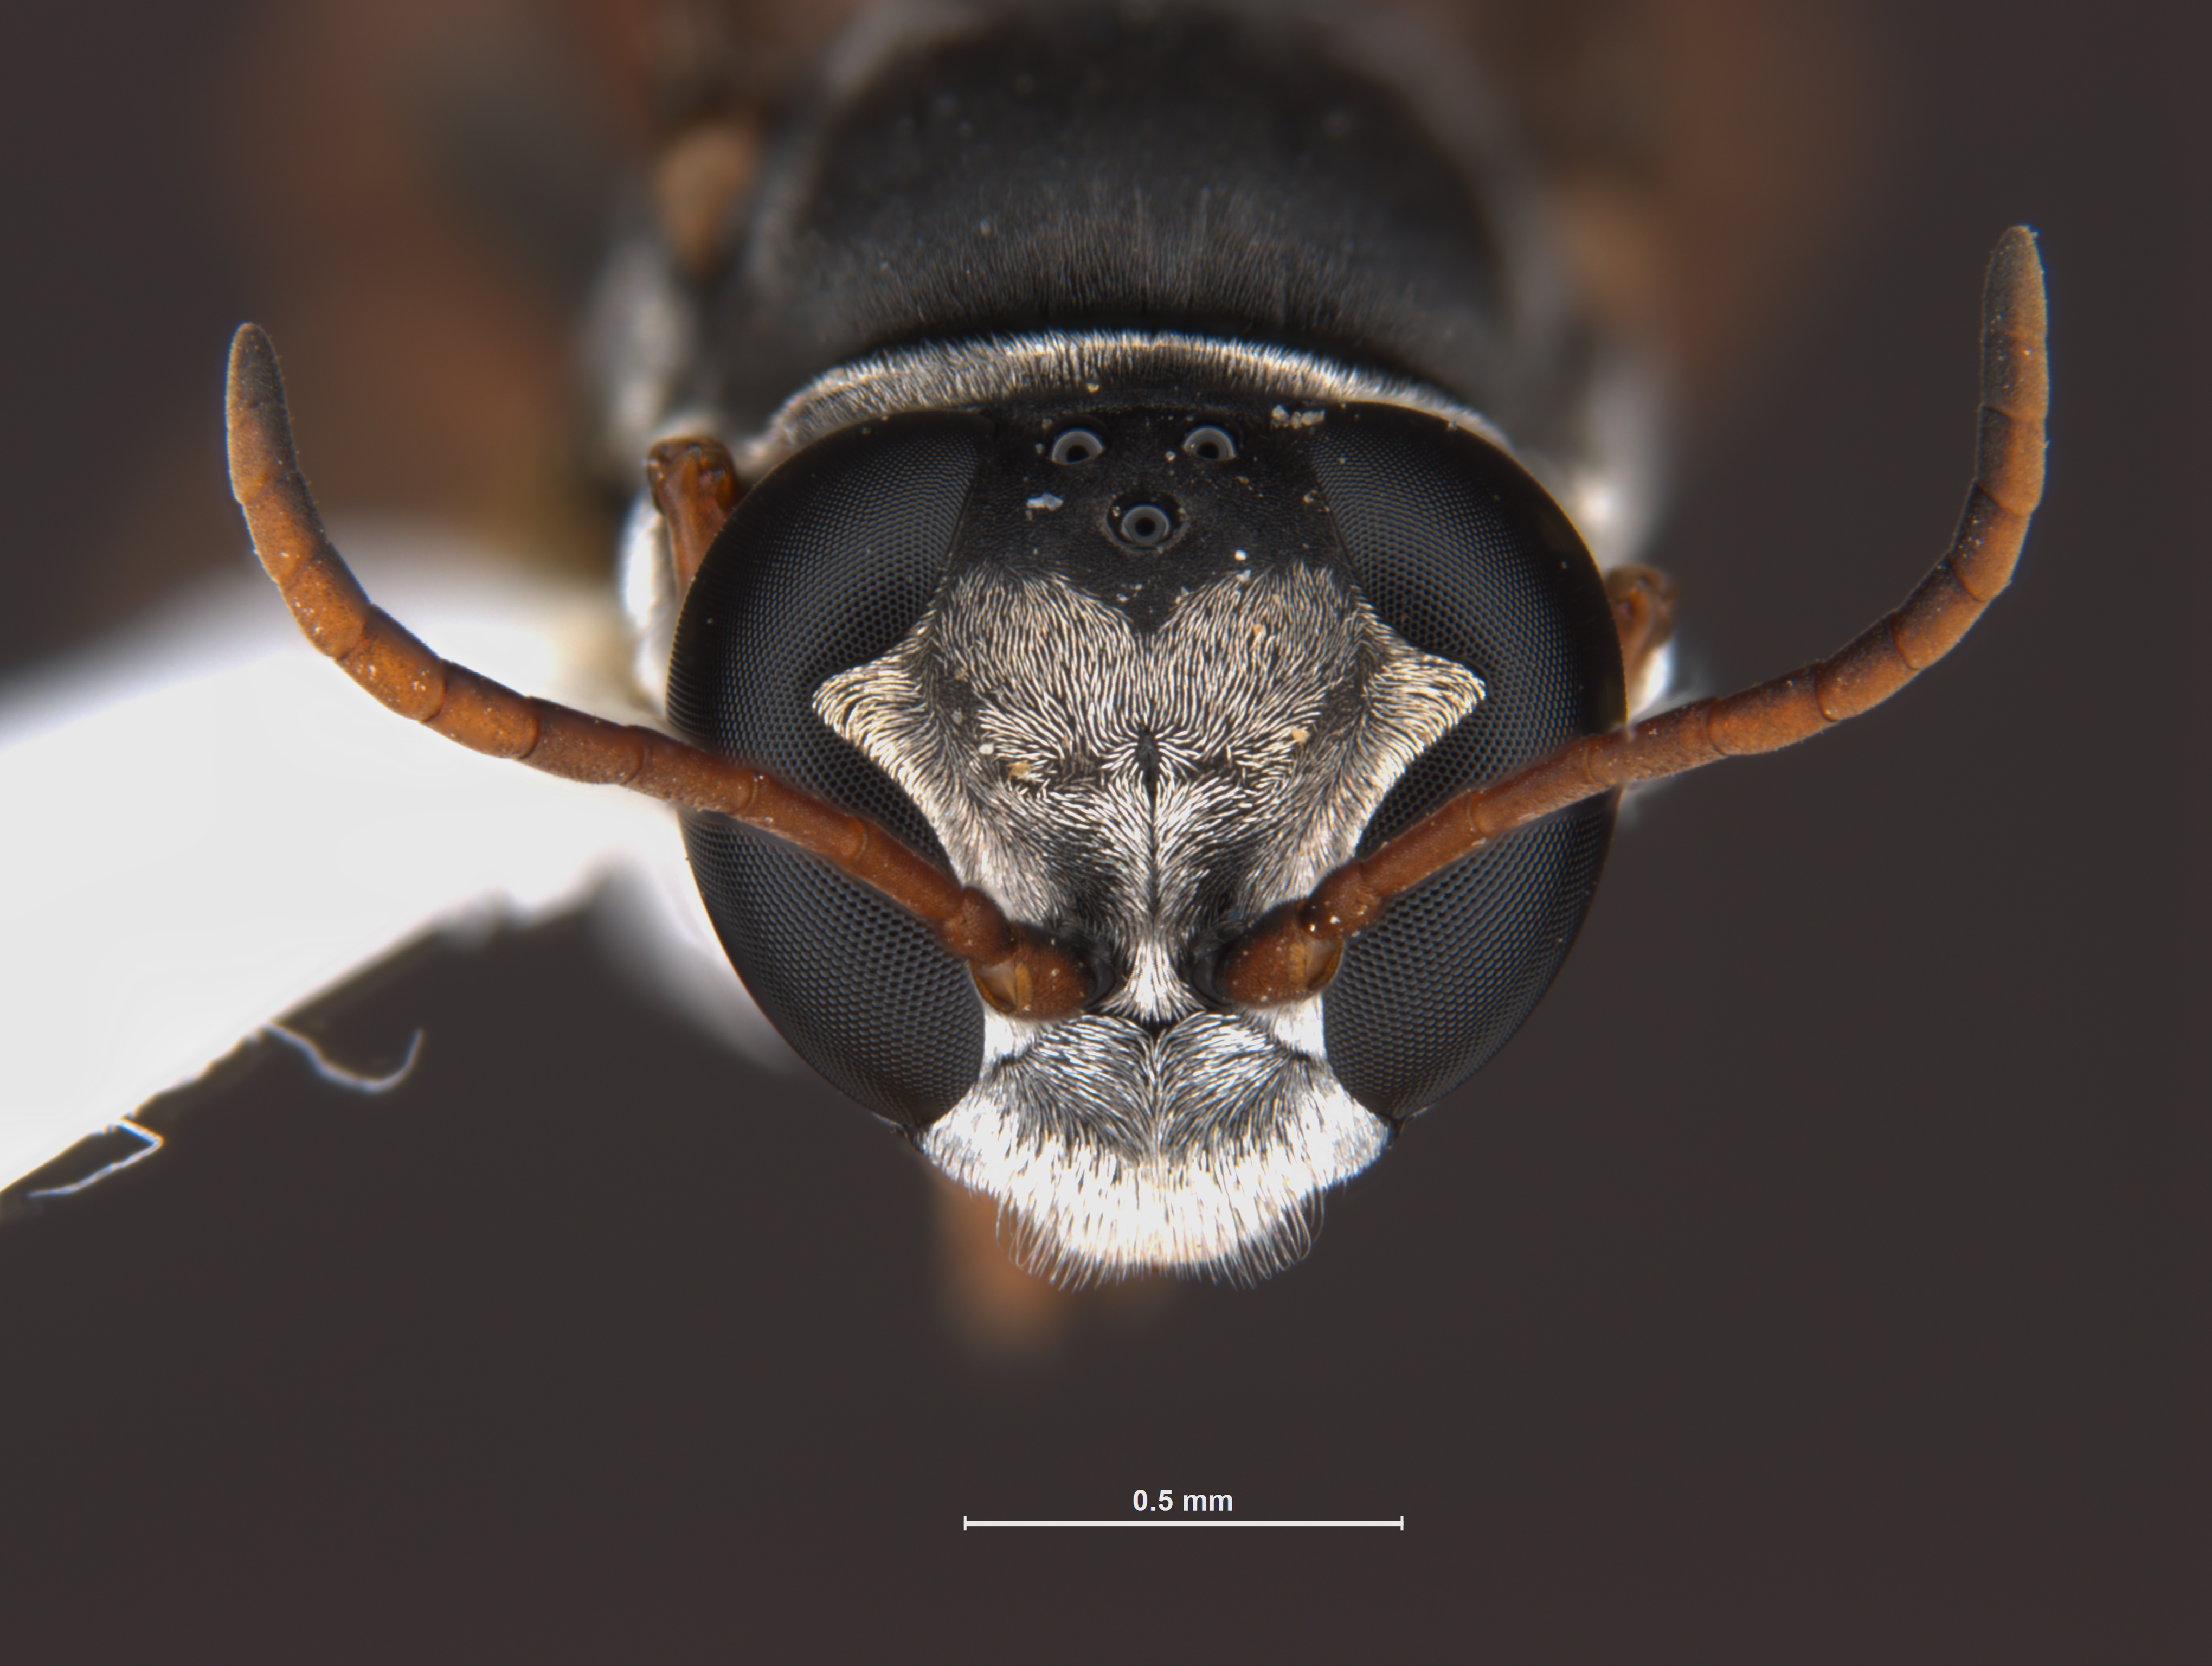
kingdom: Animalia
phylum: Arthropoda
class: Insecta
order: Hymenoptera
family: Crabronidae
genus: Pison
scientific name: Pison peletieri
